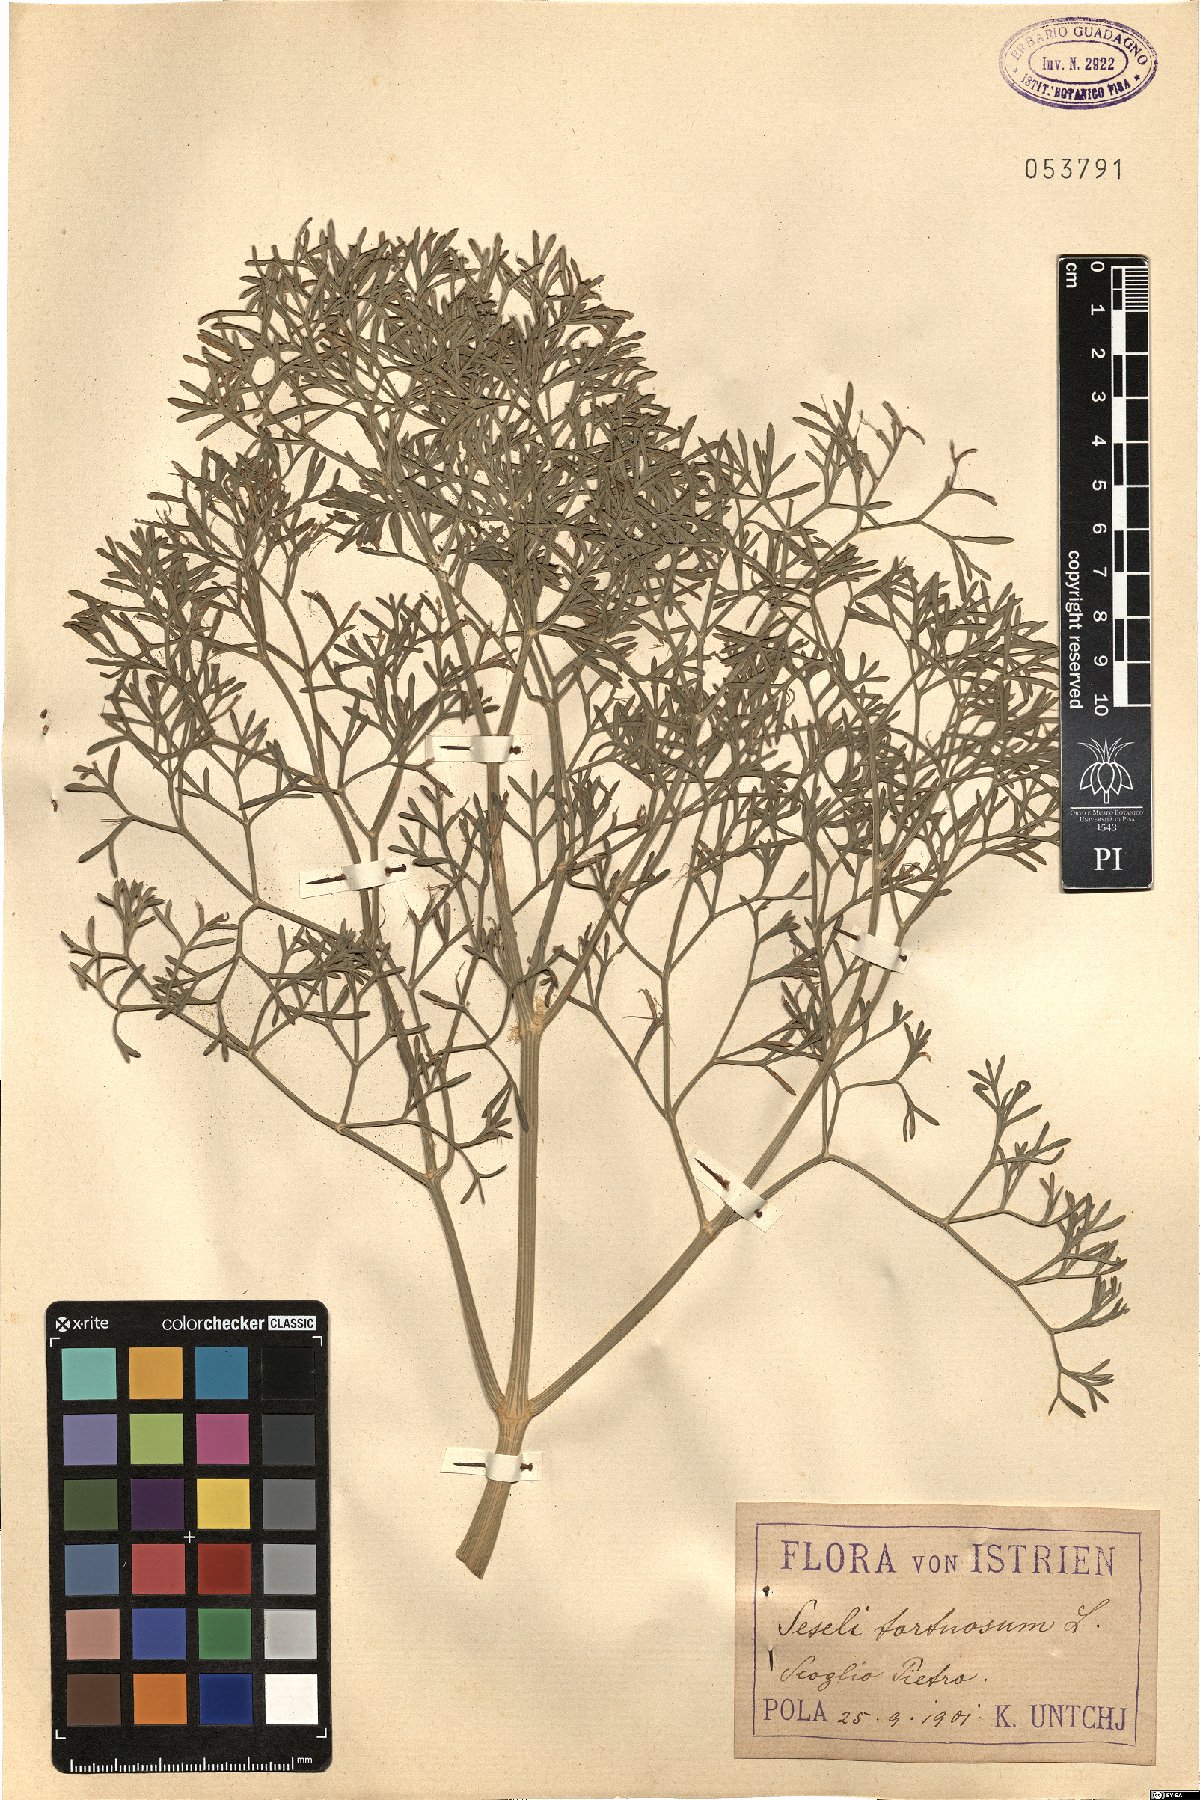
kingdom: Plantae
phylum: Tracheophyta
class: Magnoliopsida
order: Apiales
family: Apiaceae
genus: Seseli
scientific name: Seseli tortuosum
